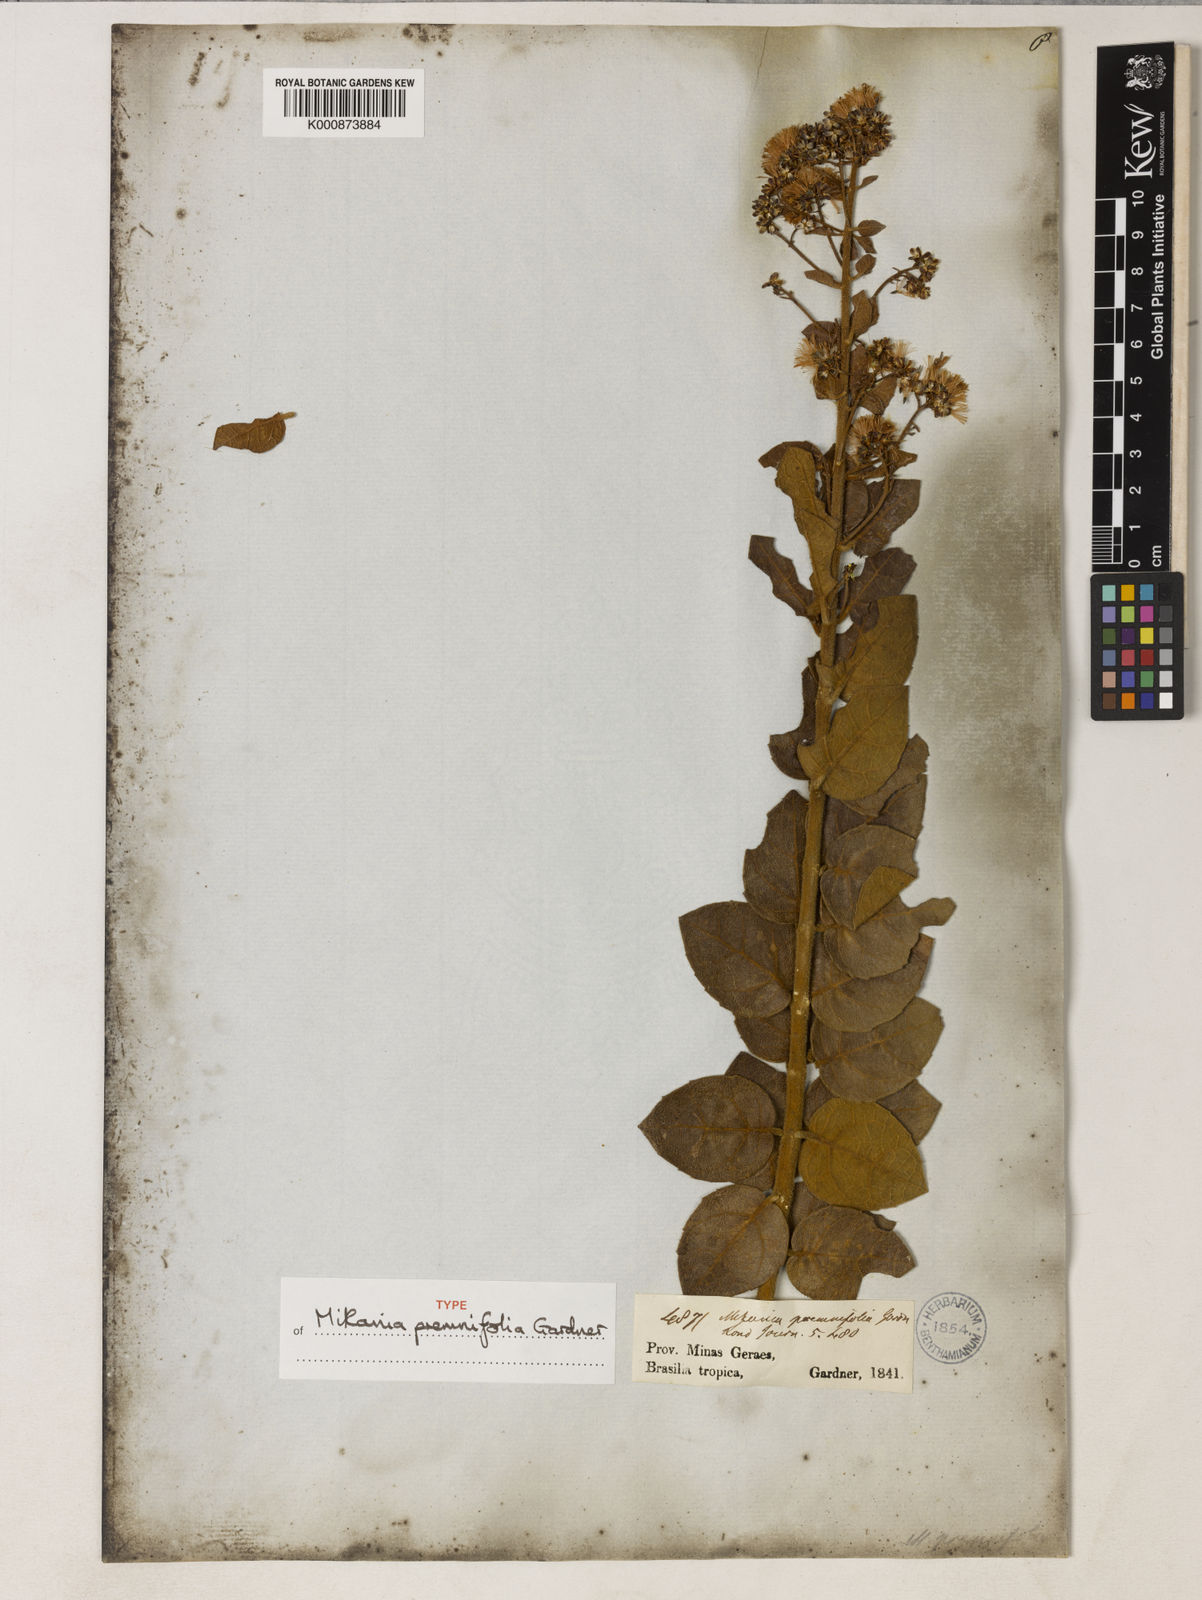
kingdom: Plantae
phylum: Tracheophyta
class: Magnoliopsida
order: Asterales
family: Asteraceae
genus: Mikania
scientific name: Mikania premnifolia
